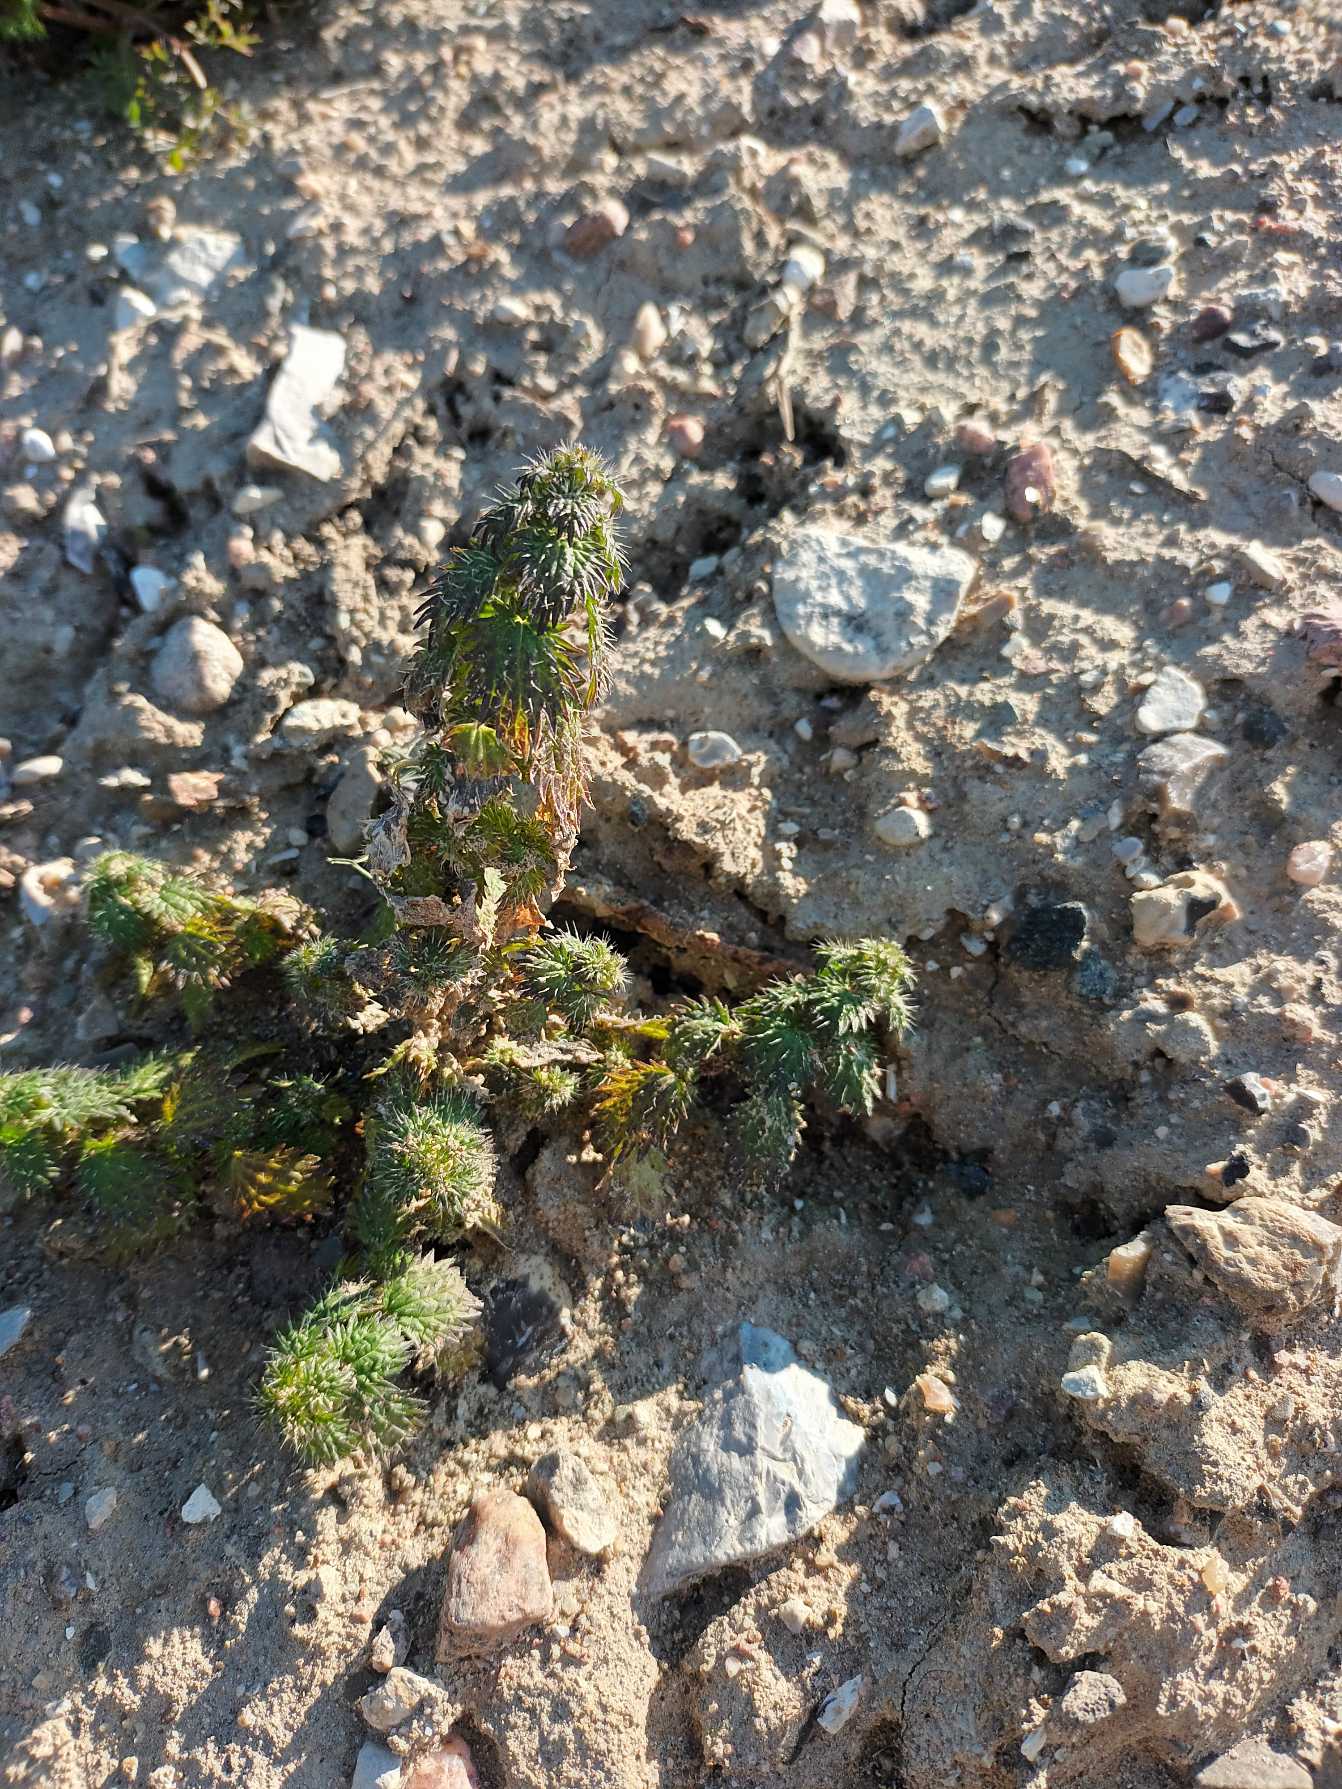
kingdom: Plantae
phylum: Tracheophyta
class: Magnoliopsida
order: Rosales
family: Urticaceae
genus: Urtica
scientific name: Urtica urens
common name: Liden nælde
